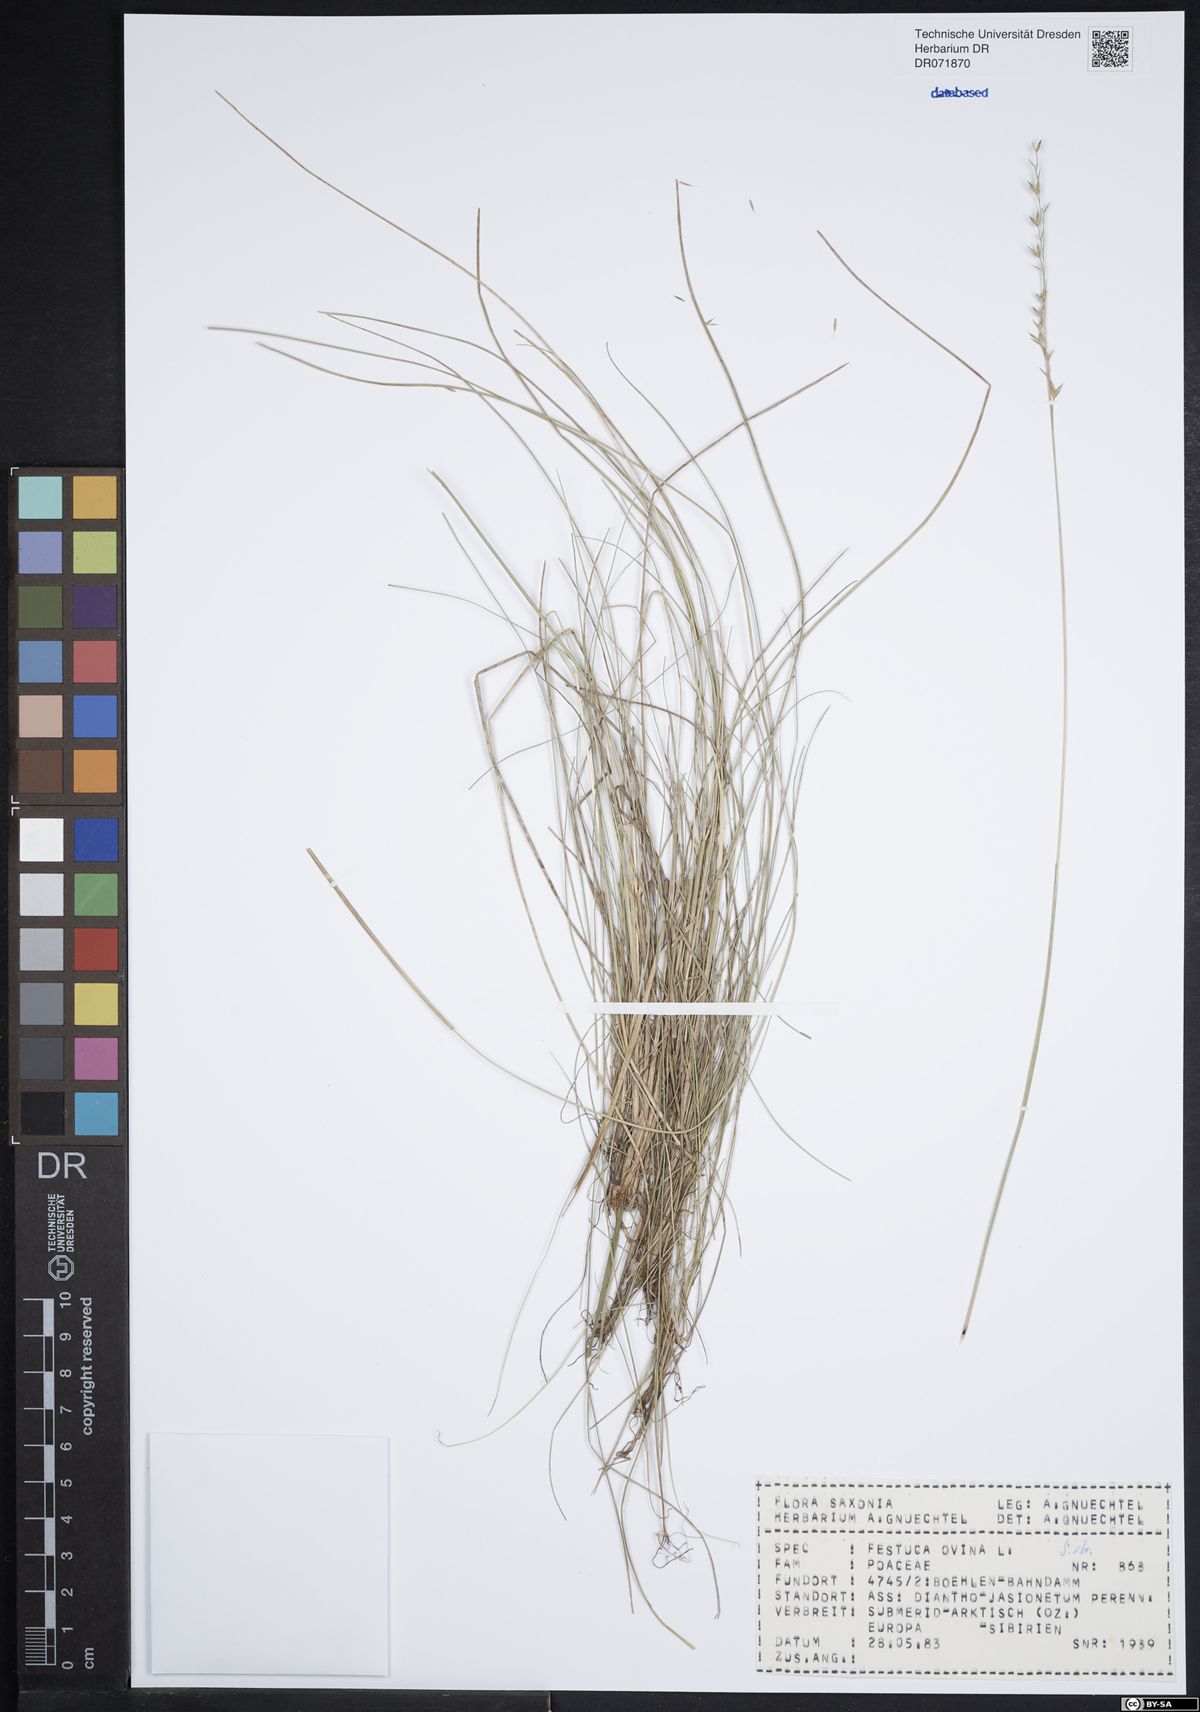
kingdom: Plantae
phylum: Tracheophyta
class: Liliopsida
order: Poales
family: Poaceae
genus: Festuca
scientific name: Festuca ovina
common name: Sheep fescue
